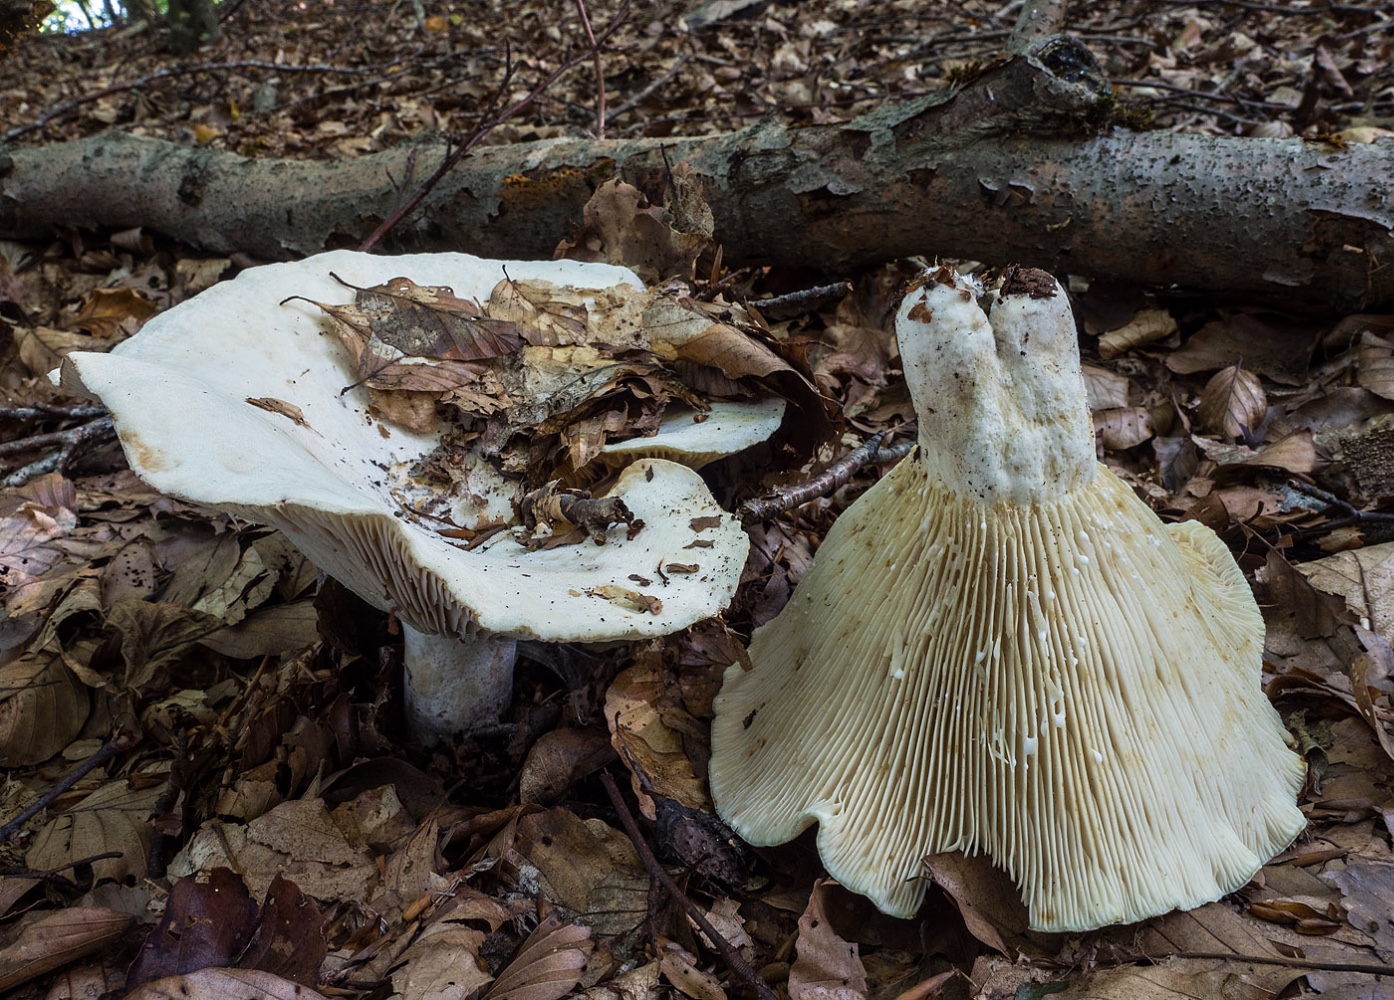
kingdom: Fungi
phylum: Basidiomycota
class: Agaricomycetes
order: Russulales
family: Russulaceae
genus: Lactifluus
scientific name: Lactifluus vellereus
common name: hvidfiltet mælkehat
